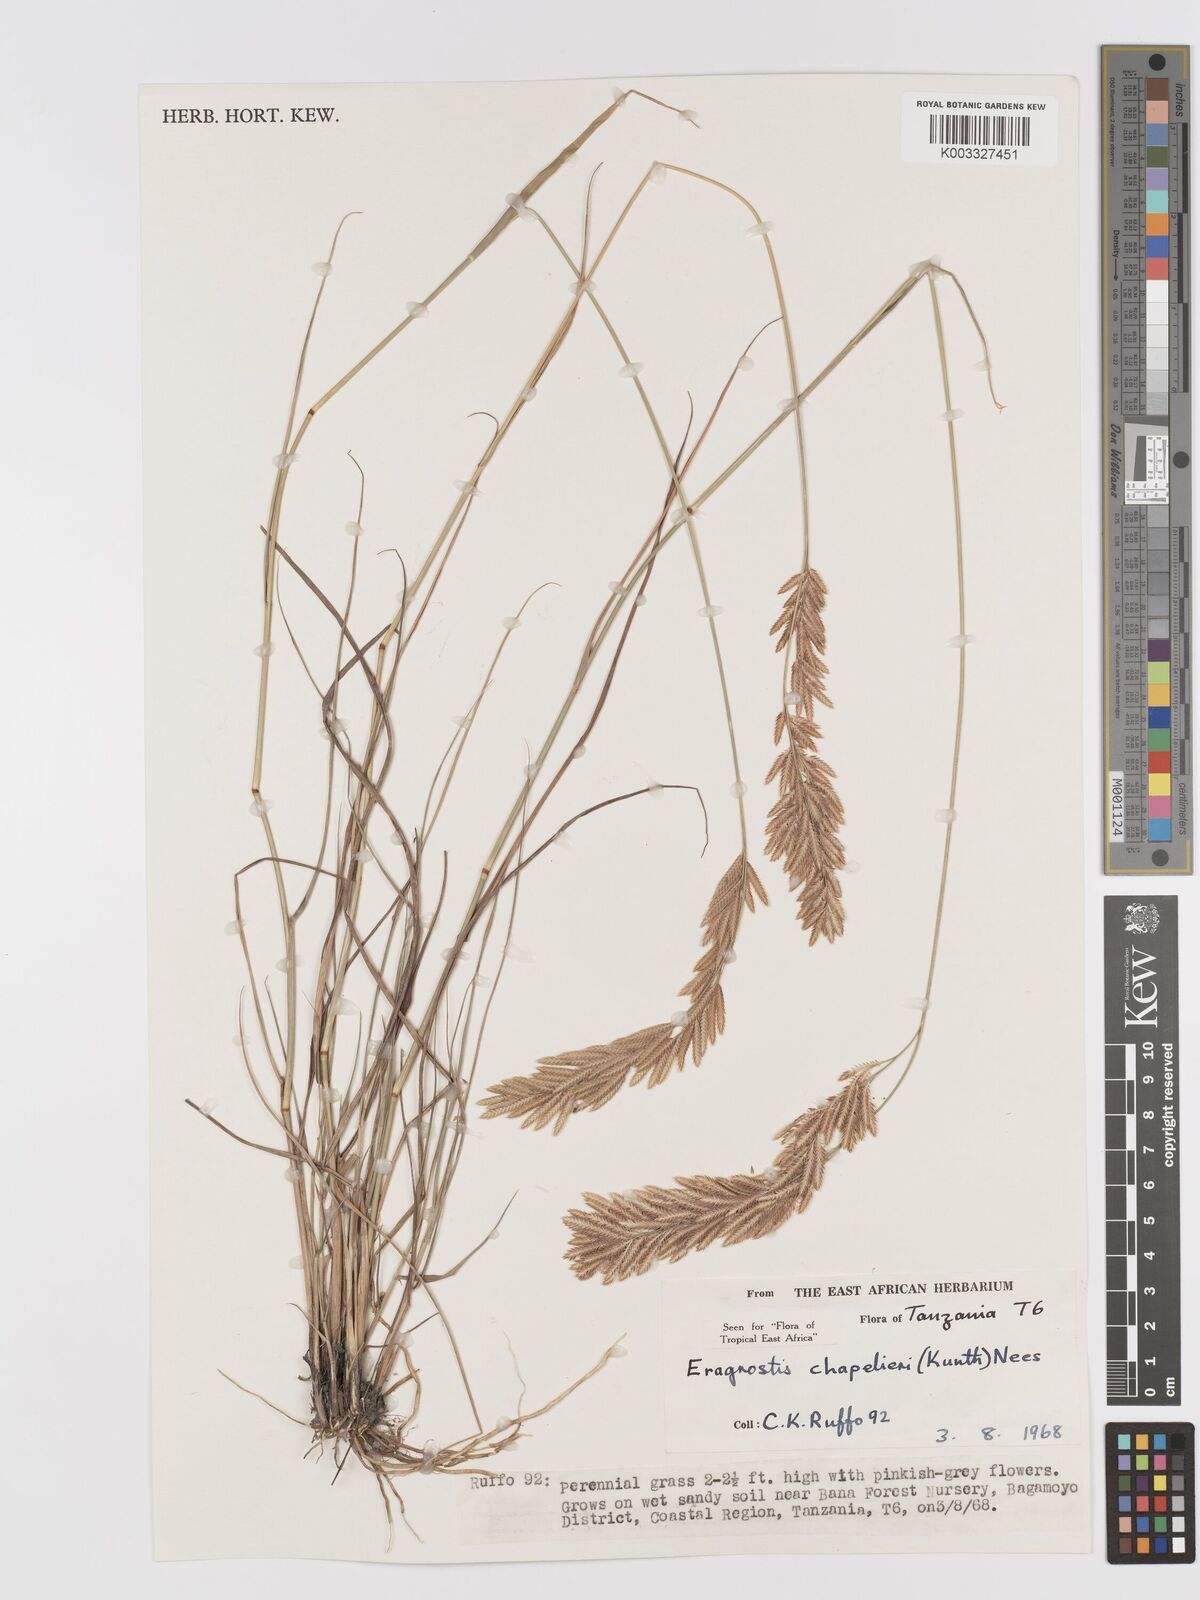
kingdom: Plantae
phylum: Tracheophyta
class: Liliopsida
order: Poales
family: Poaceae
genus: Eragrostis
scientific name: Eragrostis chapelieri
